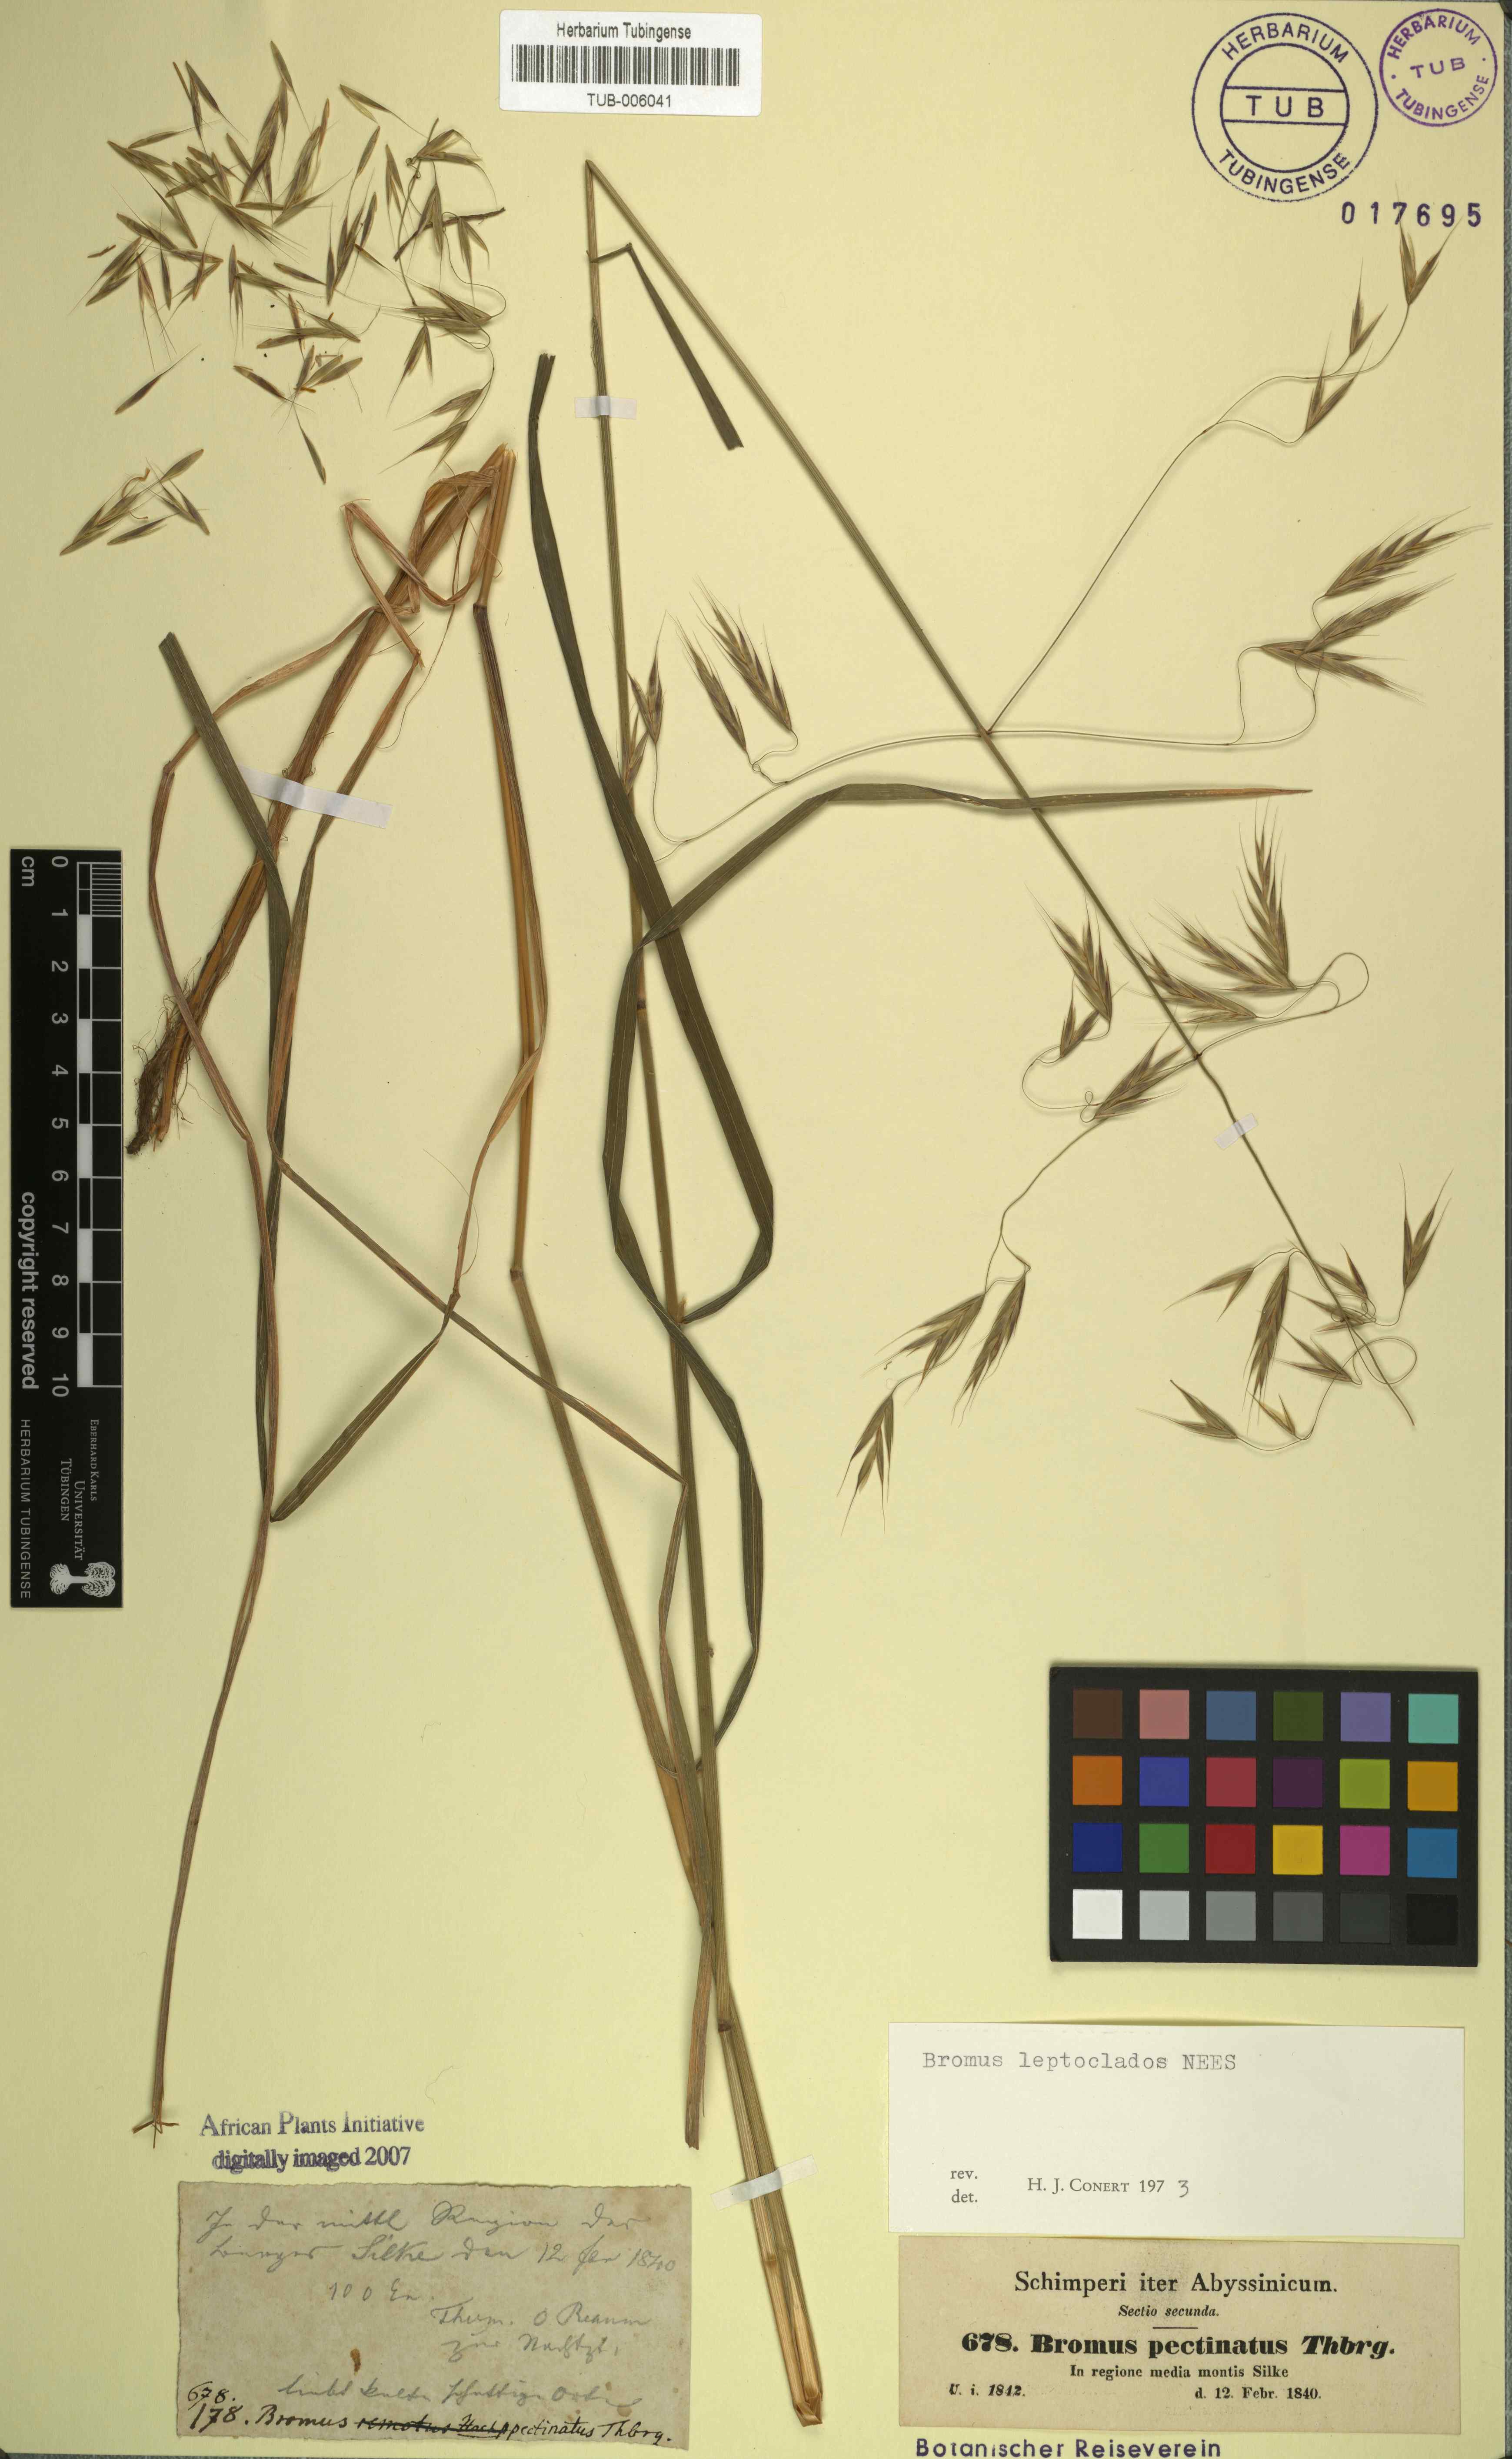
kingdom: Plantae
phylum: Tracheophyta
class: Liliopsida
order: Poales
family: Poaceae
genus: Bromus
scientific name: Bromus leptoclados
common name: Mountain bromegrass
